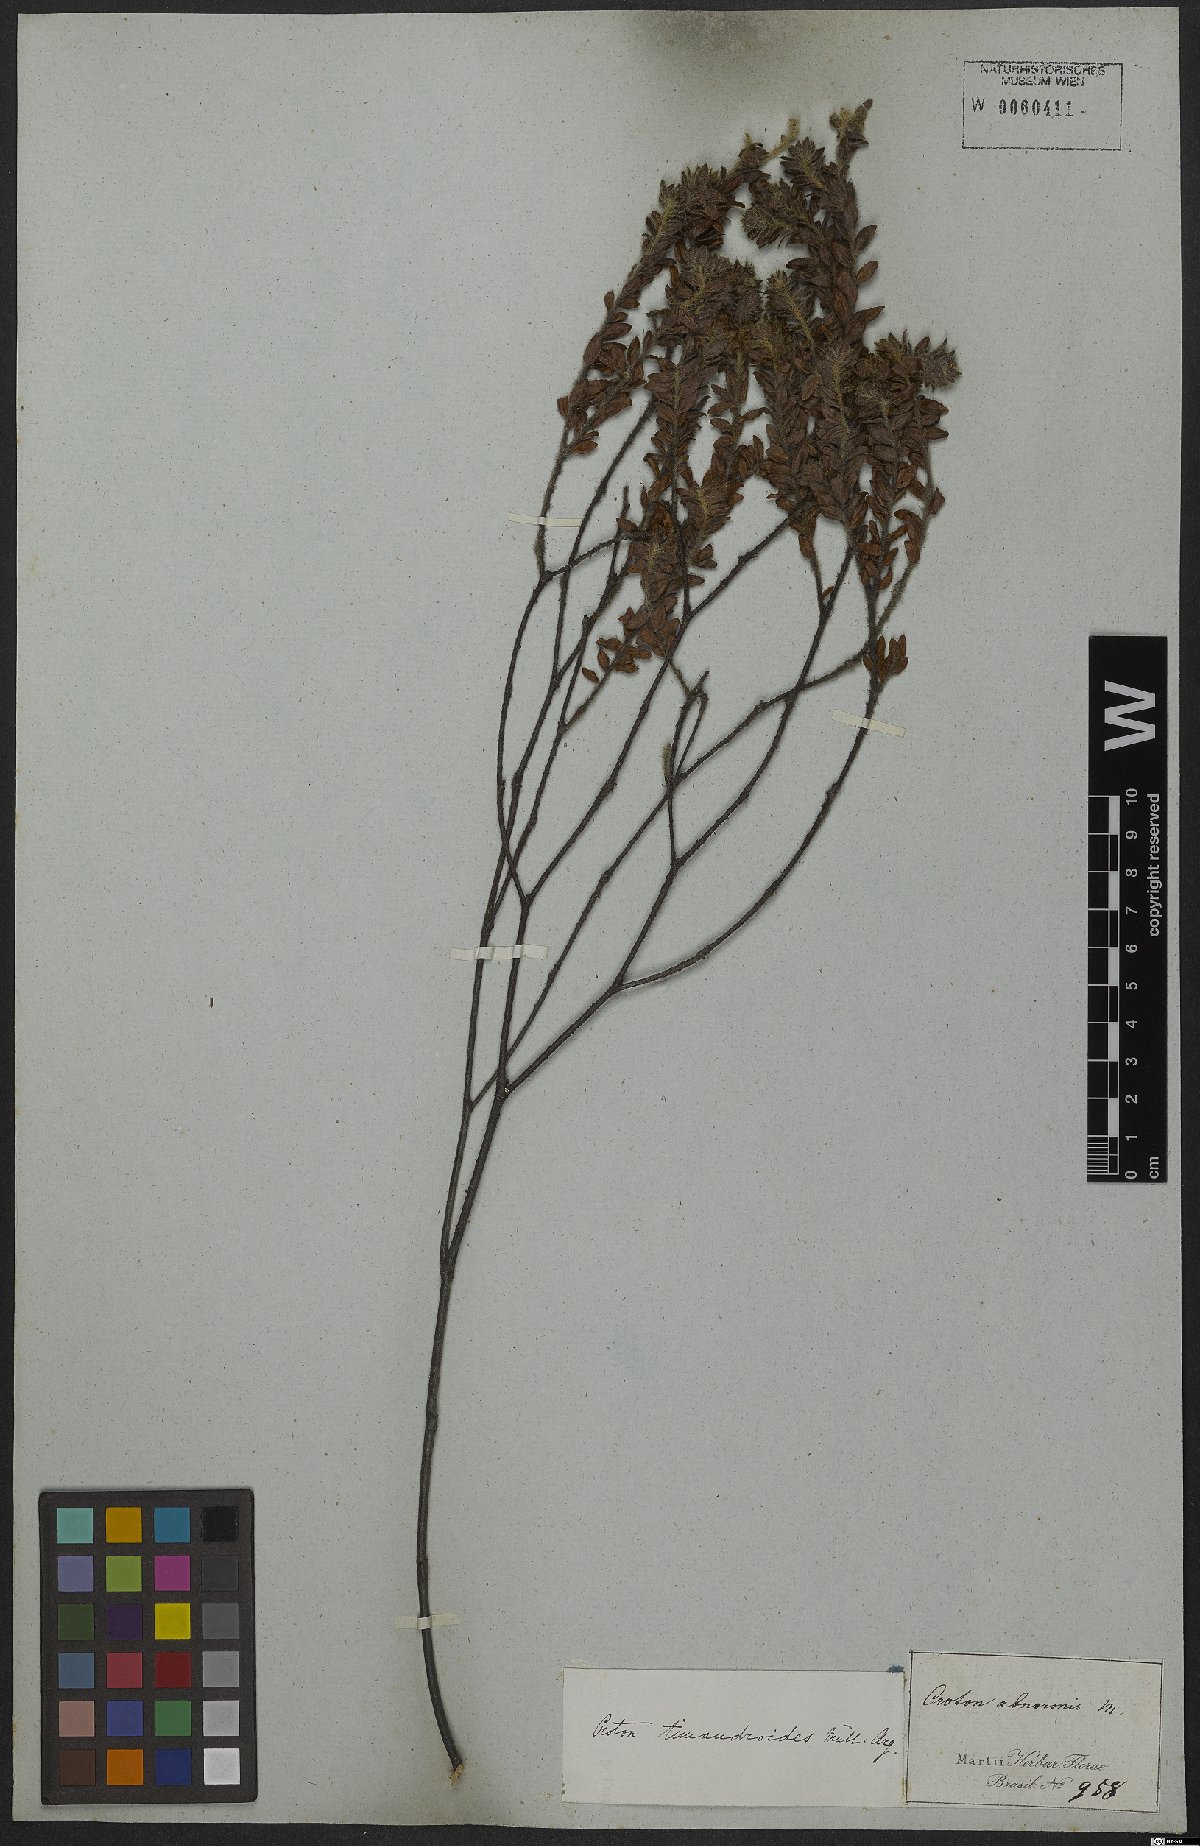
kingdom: Plantae
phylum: Tracheophyta
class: Magnoliopsida
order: Malpighiales
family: Euphorbiaceae
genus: Croton
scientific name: Croton timandroides
